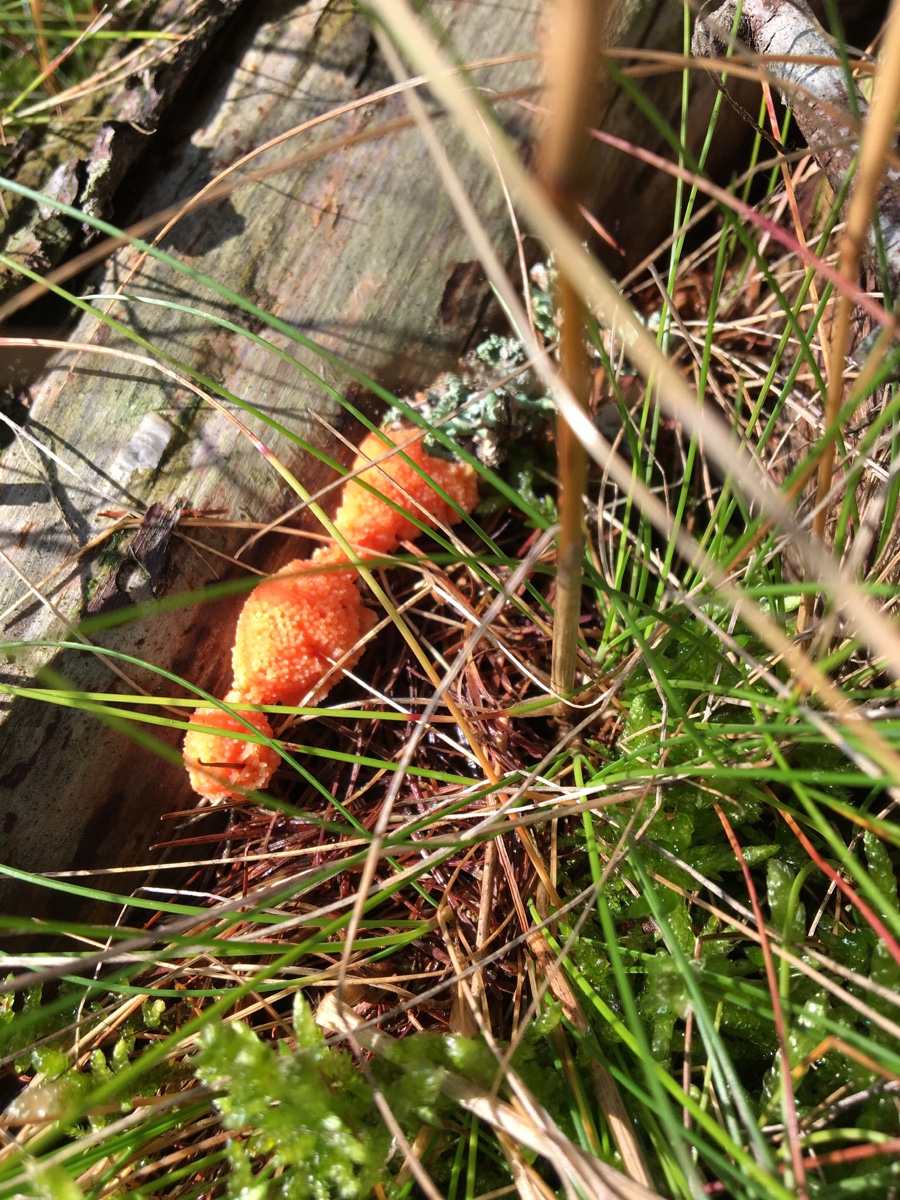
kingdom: Protozoa
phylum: Mycetozoa
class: Myxomycetes
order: Cribrariales
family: Tubiferaceae
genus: Tubifera
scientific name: Tubifera ferruginosa
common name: kanel-støvrør
